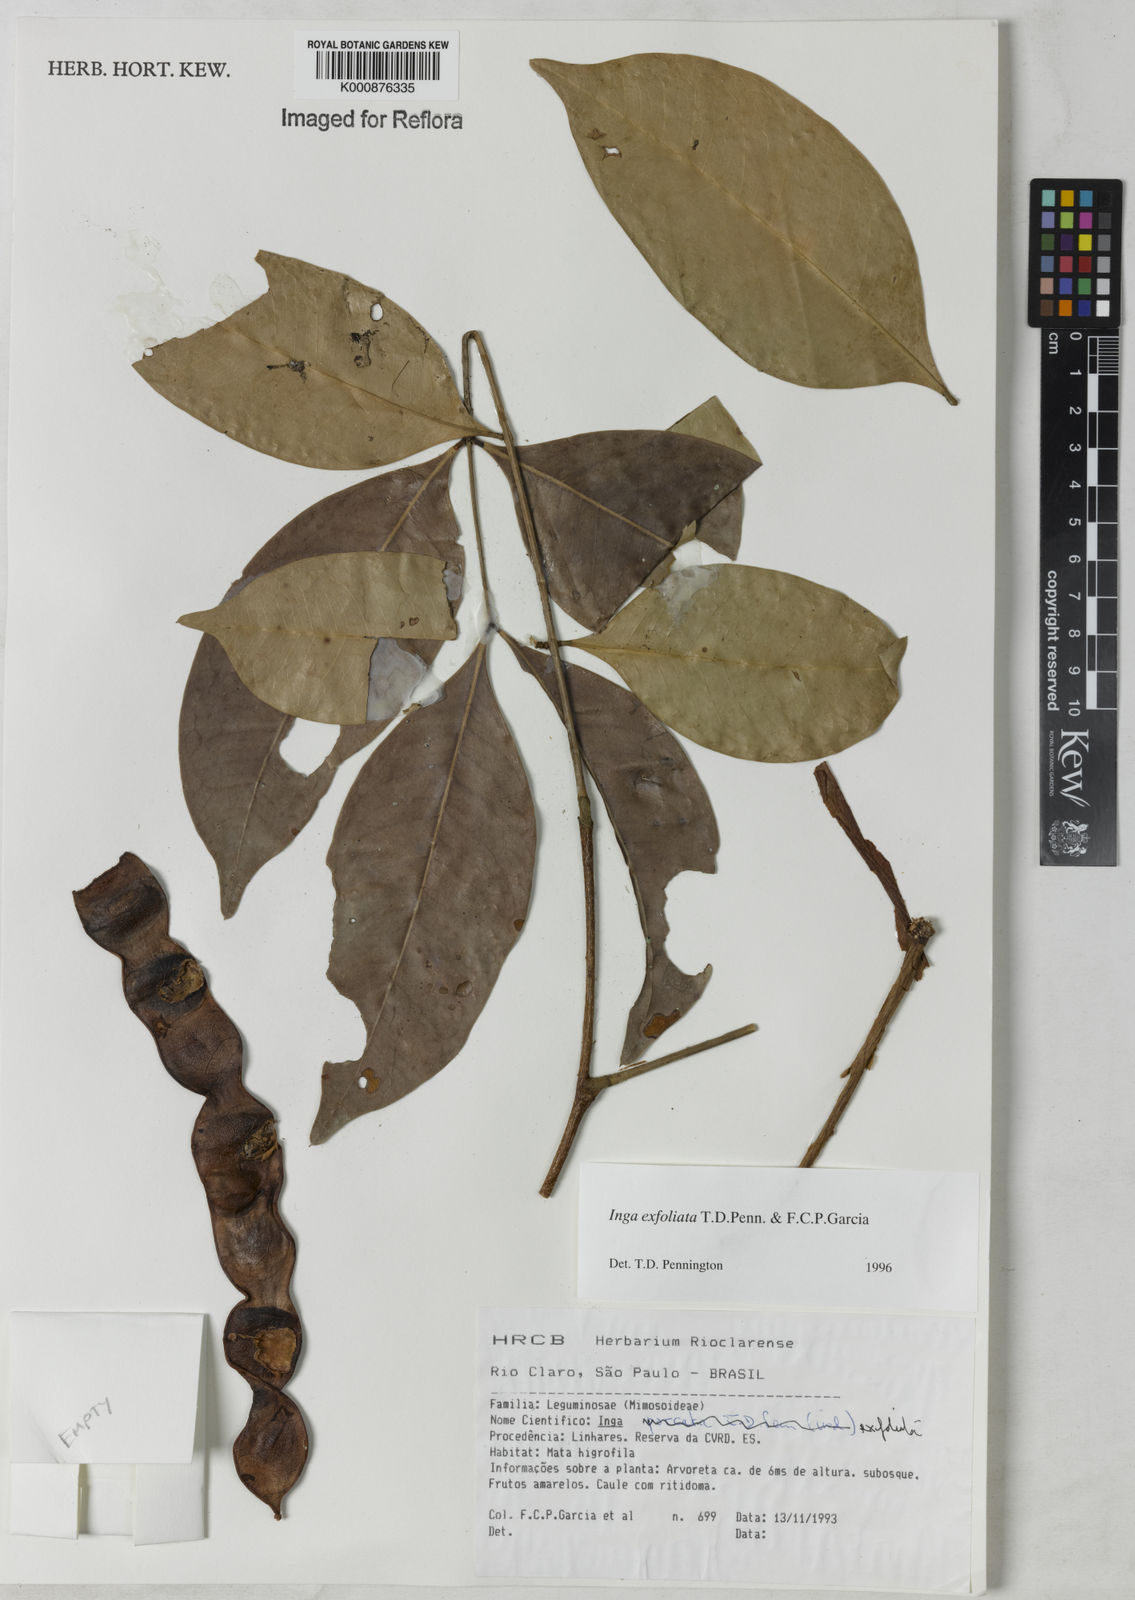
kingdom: Plantae
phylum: Tracheophyta
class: Magnoliopsida
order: Fabales
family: Fabaceae
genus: Inga
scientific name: Inga
